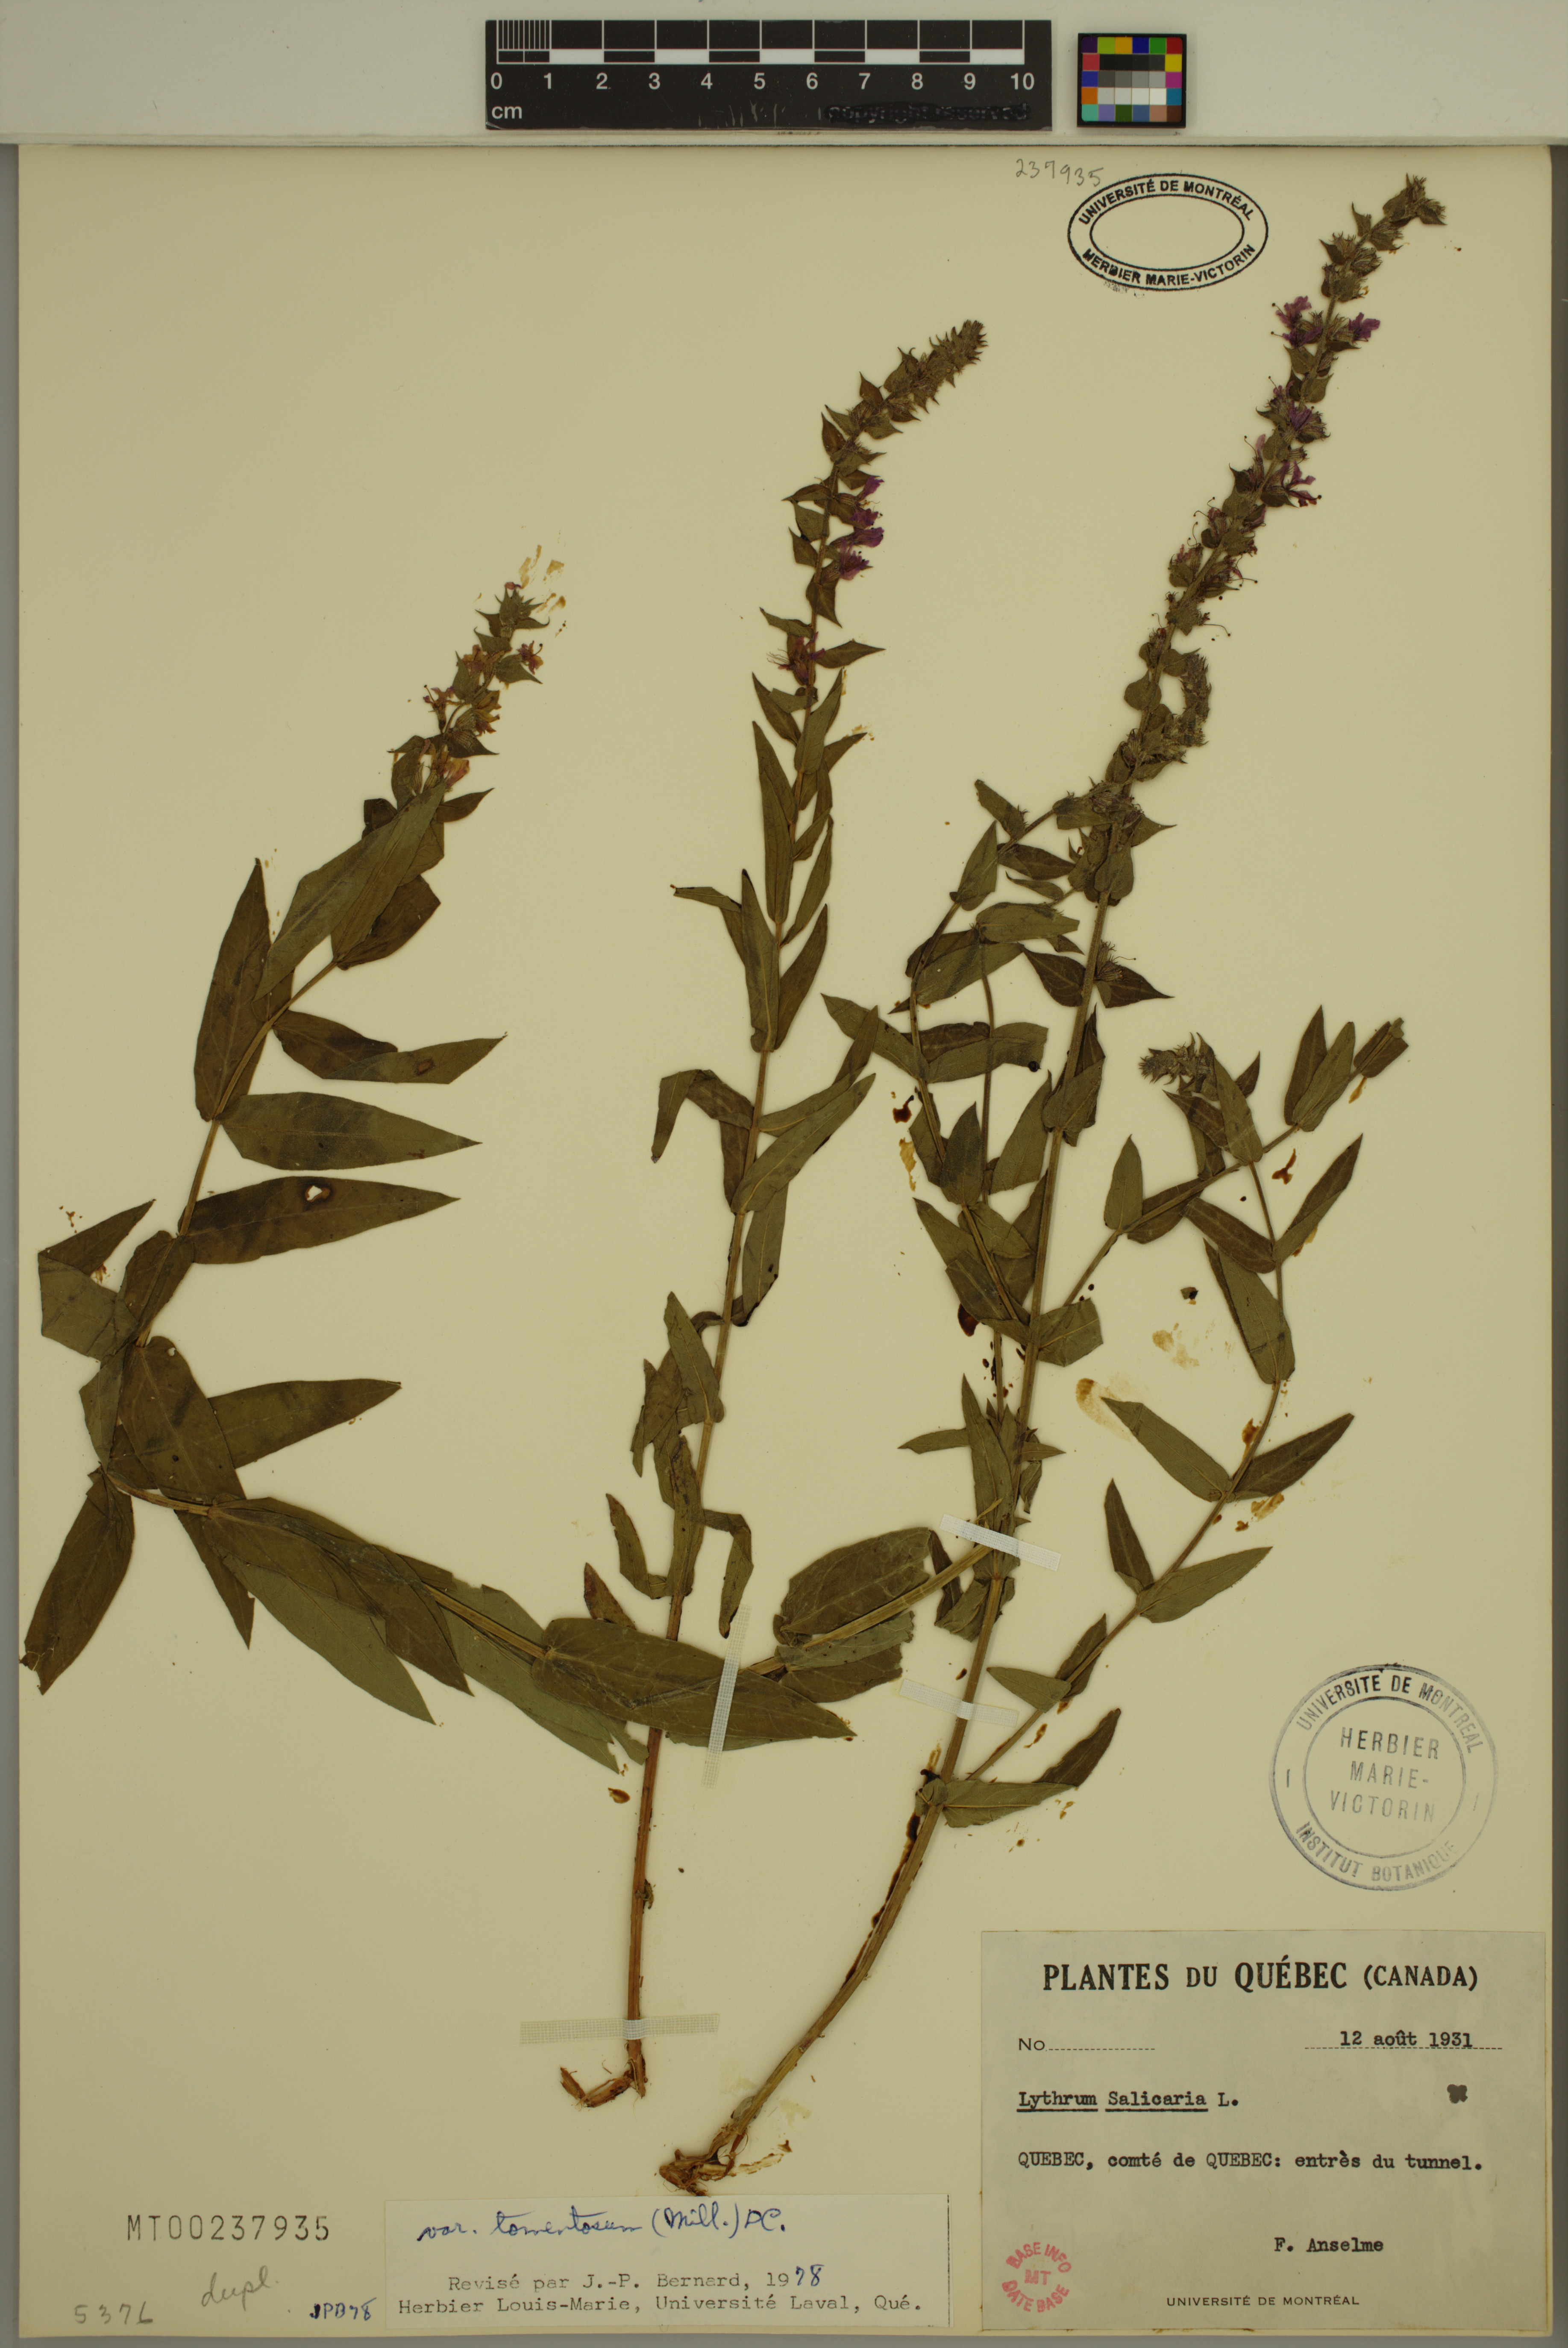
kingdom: Plantae
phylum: Tracheophyta
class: Magnoliopsida
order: Myrtales
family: Lythraceae
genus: Lythrum
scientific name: Lythrum salicaria
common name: Purple loosestrife
